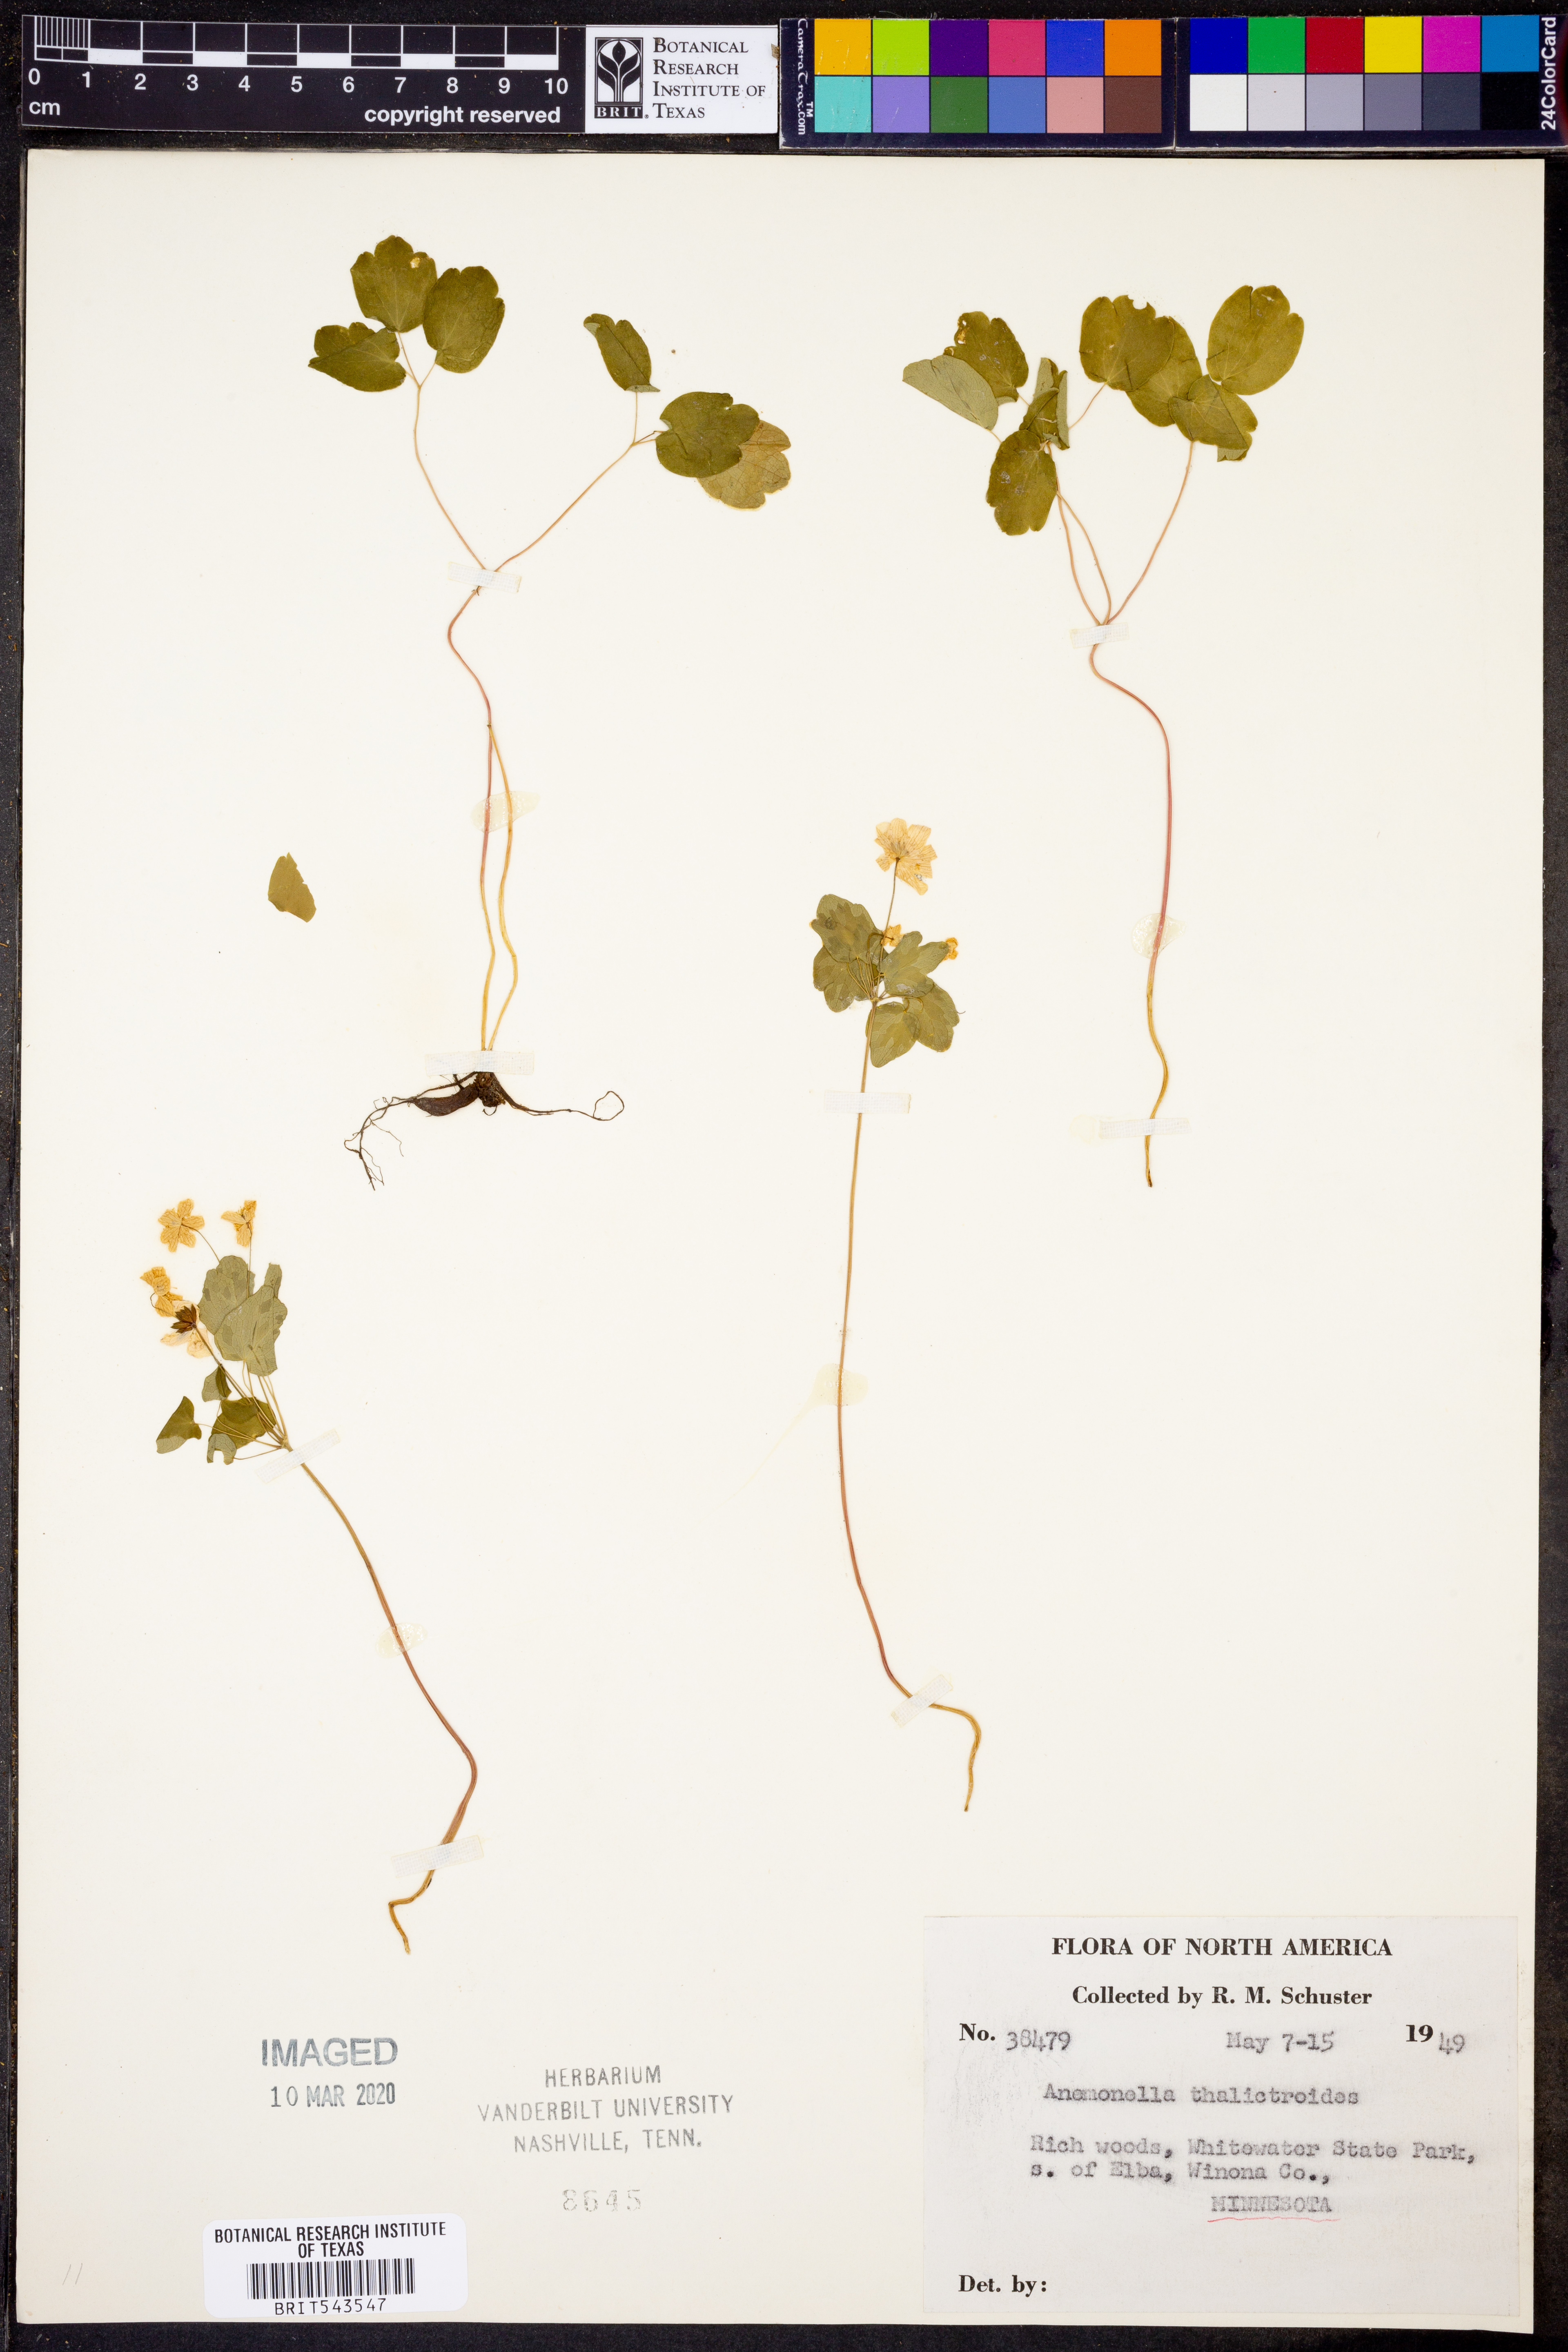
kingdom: Plantae
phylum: Tracheophyta
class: Magnoliopsida
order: Ranunculales
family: Ranunculaceae
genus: Thalictrum
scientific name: Thalictrum thalictroides
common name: Rue-anemone
